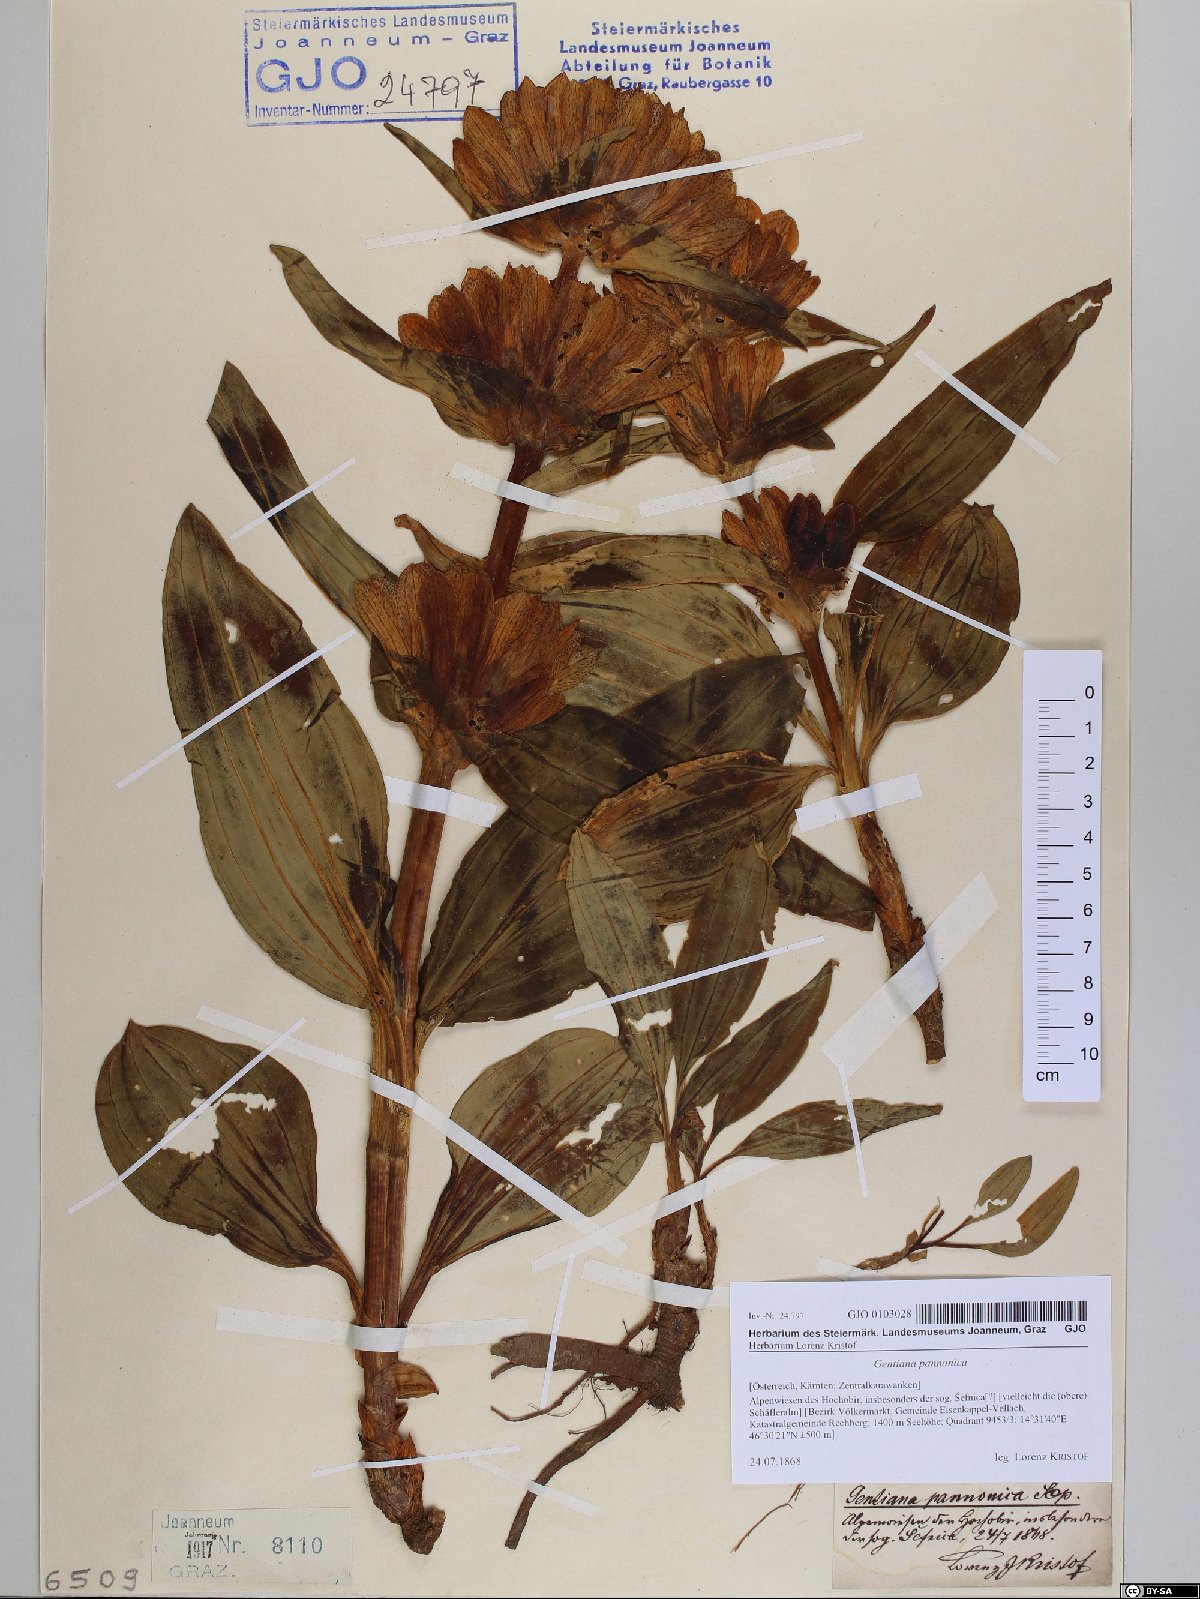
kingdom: Plantae
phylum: Tracheophyta
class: Magnoliopsida
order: Gentianales
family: Gentianaceae
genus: Gentiana
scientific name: Gentiana pannonica
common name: Hungarian gentian
